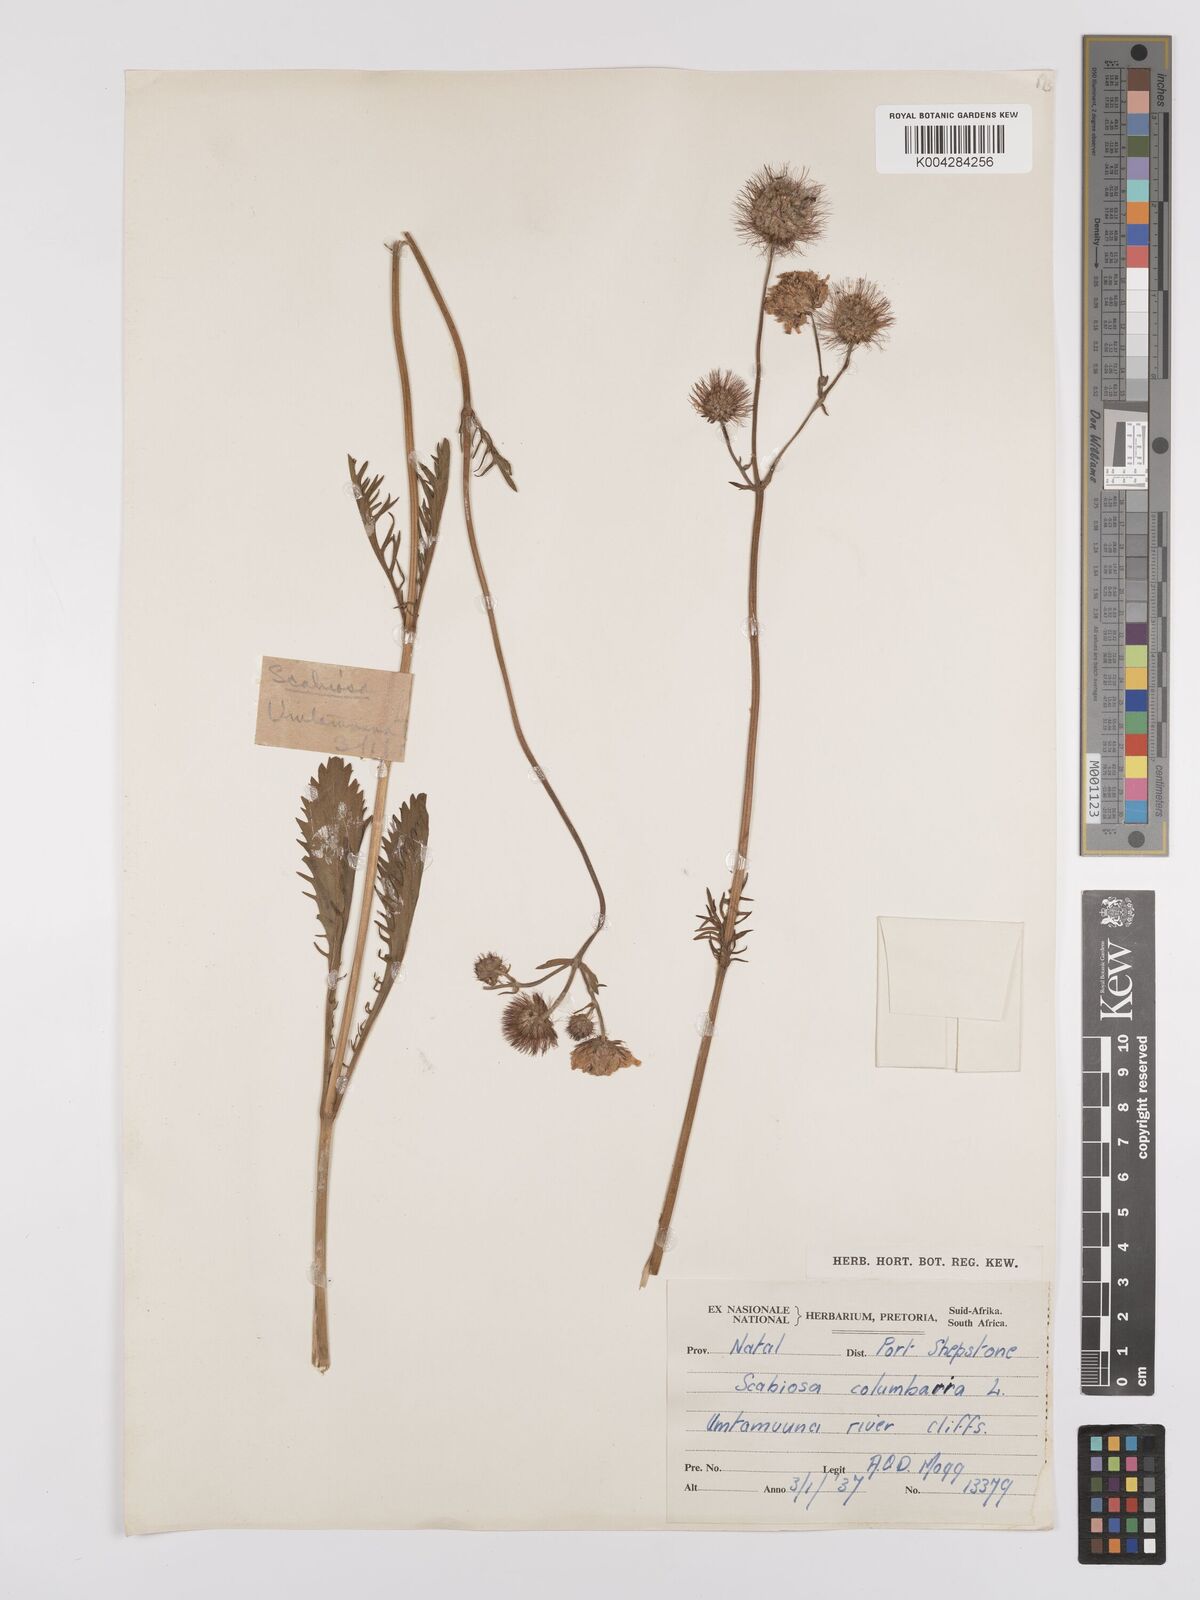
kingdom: Plantae
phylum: Tracheophyta
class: Magnoliopsida
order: Dipsacales
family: Caprifoliaceae
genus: Scabiosa
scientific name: Scabiosa columbaria
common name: Small scabious
